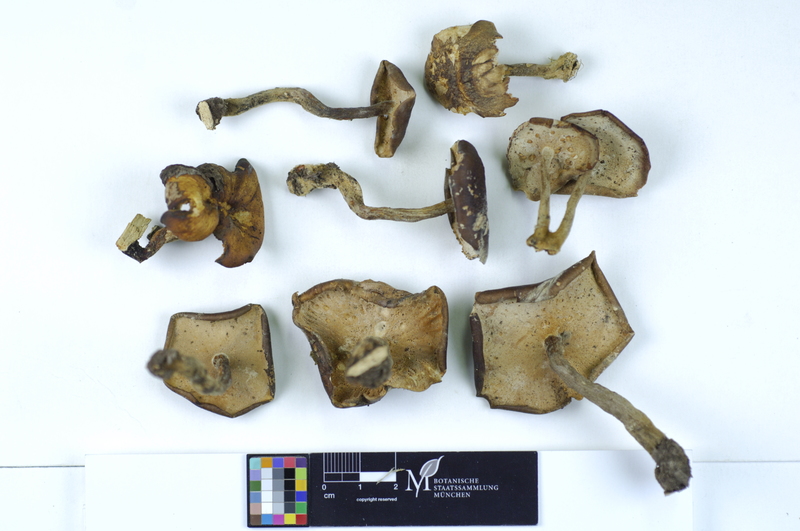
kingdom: Fungi
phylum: Basidiomycota
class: Agaricomycetes
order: Polyporales
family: Polyporaceae
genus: Polyporus
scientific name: Polyporus lepideus
